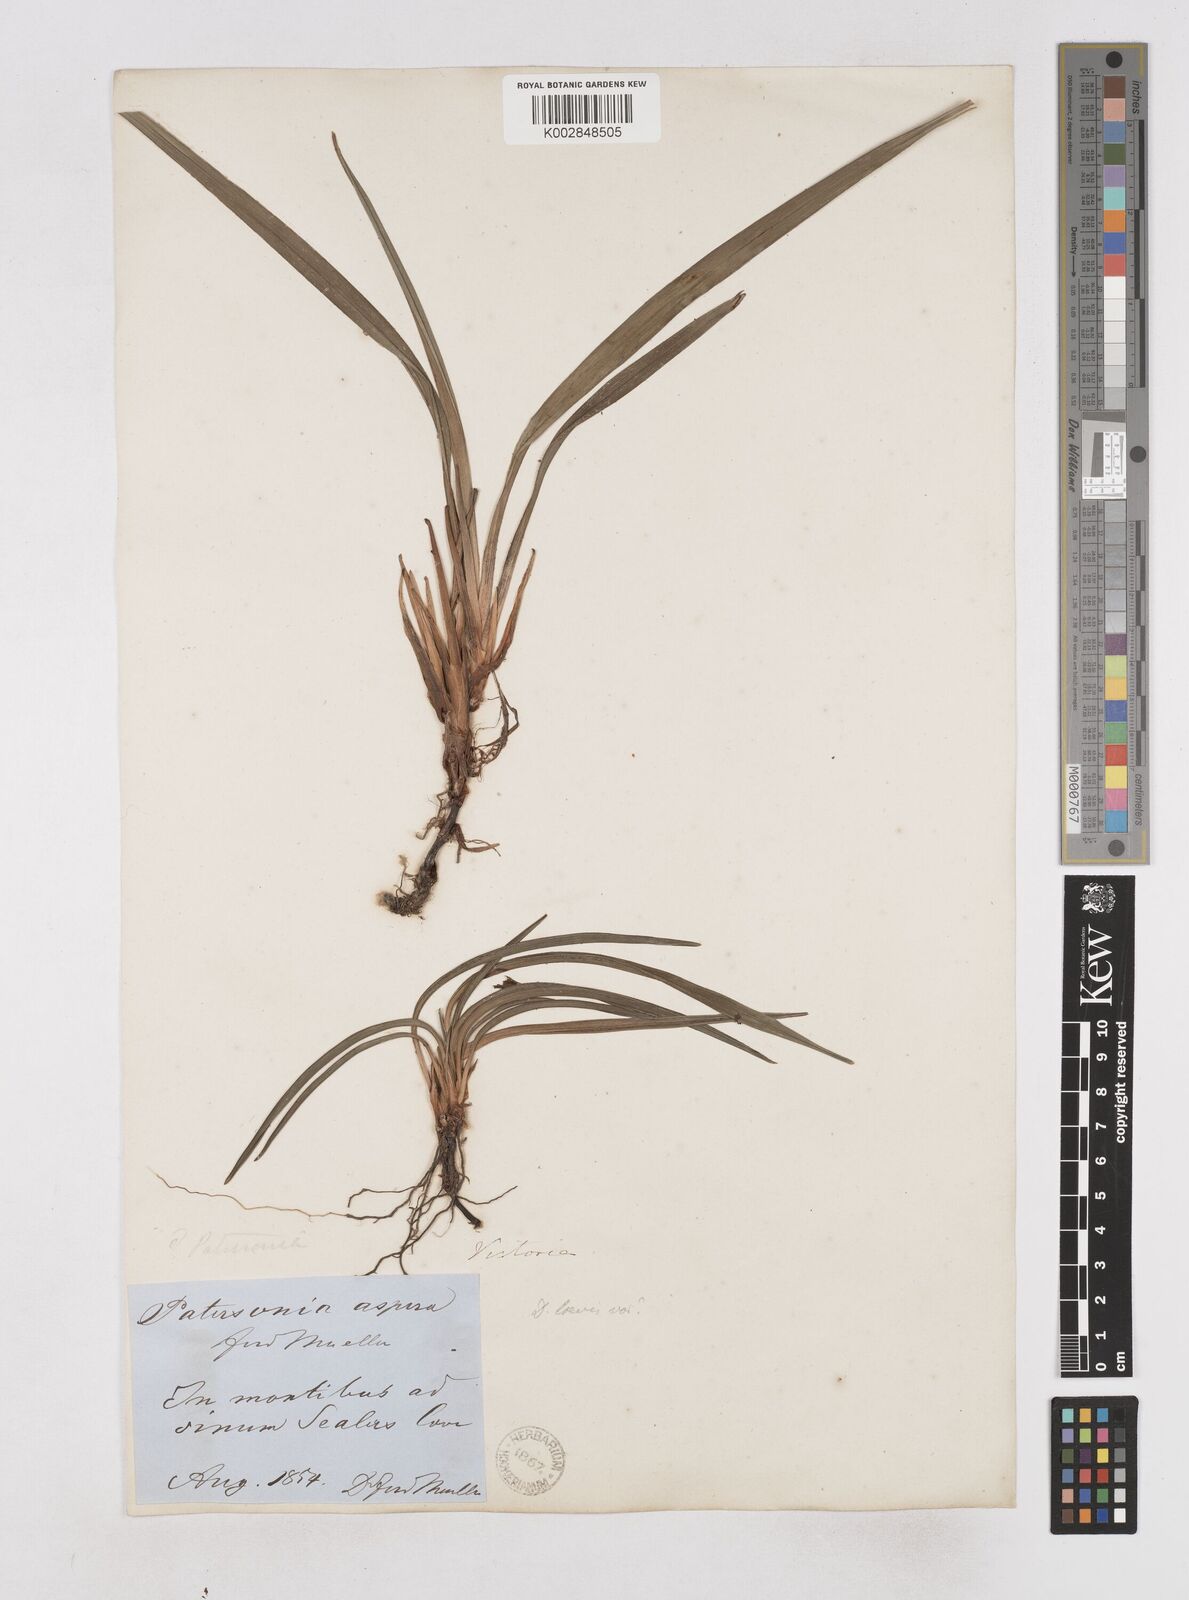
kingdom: Plantae
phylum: Tracheophyta
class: Liliopsida
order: Asparagales
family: Asphodelaceae
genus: Dianella
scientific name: Dianella caerulea
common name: Blue flax-lily
